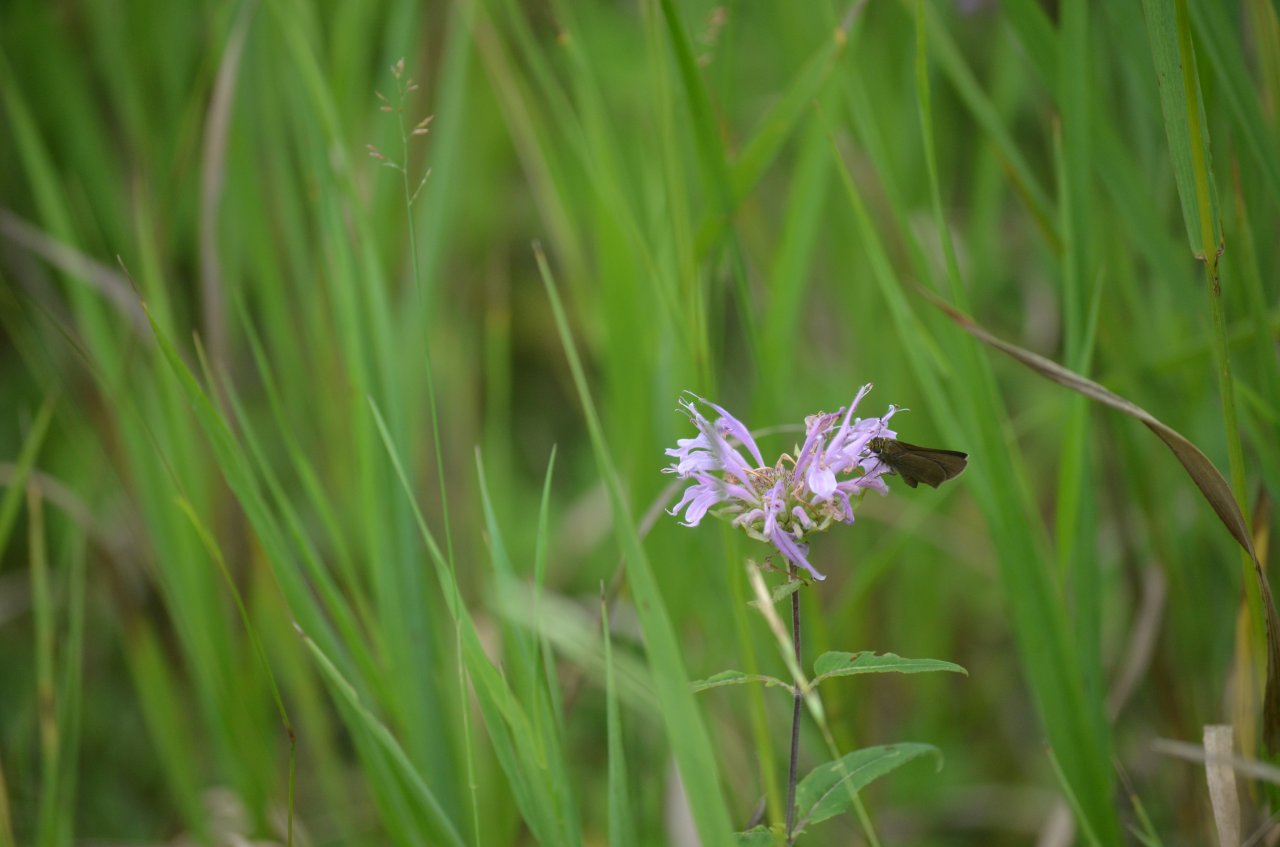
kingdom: Animalia
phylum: Arthropoda
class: Insecta
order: Lepidoptera
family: Hesperiidae
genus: Euphyes
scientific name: Euphyes vestris
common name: Dun Skipper
